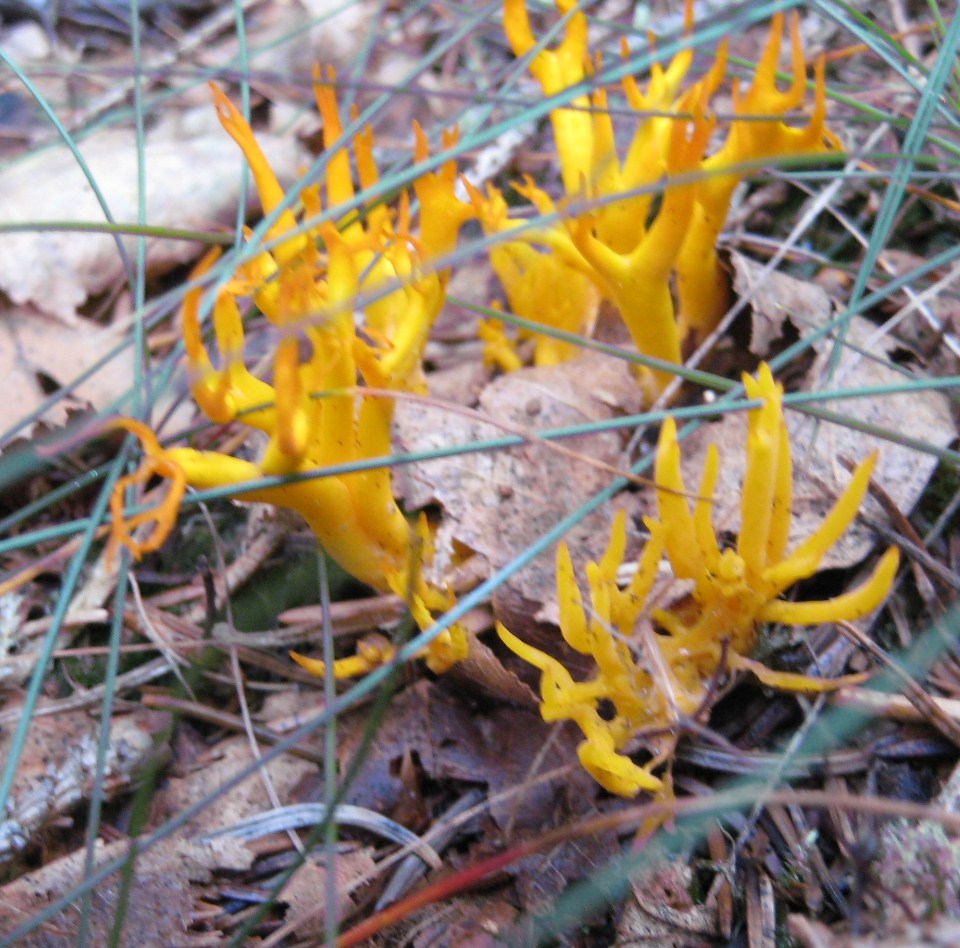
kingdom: Fungi
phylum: Basidiomycota
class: Dacrymycetes
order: Dacrymycetales
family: Dacrymycetaceae
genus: Calocera
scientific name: Calocera viscosa
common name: almindelig guldgaffel
